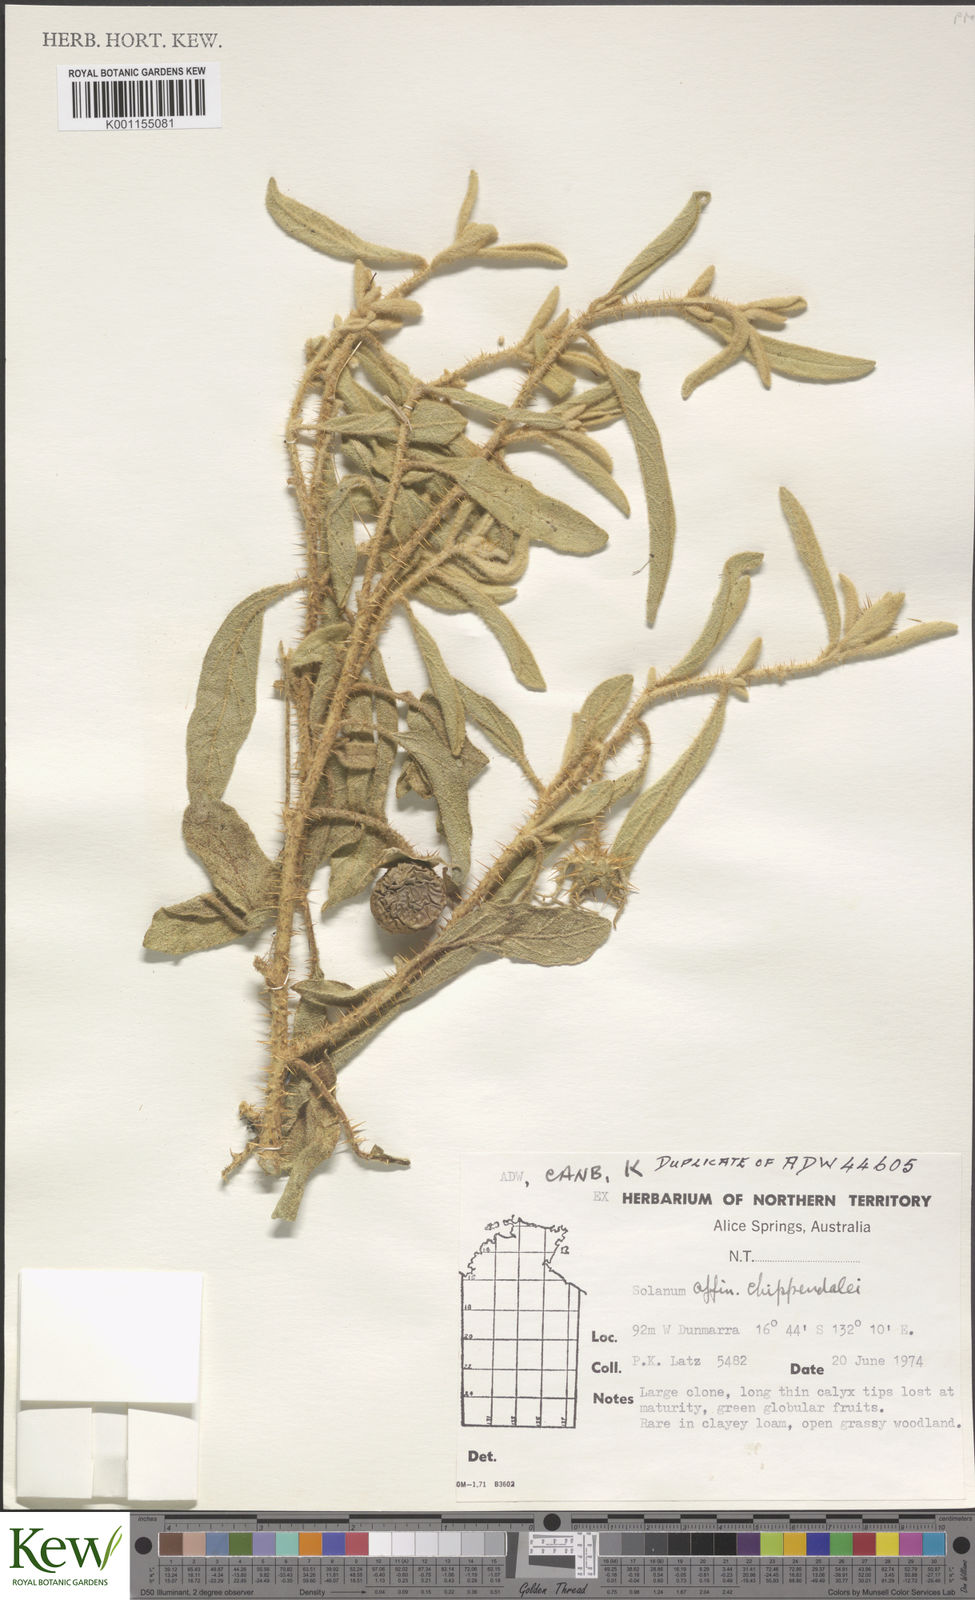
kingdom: Plantae
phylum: Tracheophyta
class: Magnoliopsida
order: Solanales
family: Solanaceae
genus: Solanum
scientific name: Solanum chippendalei
